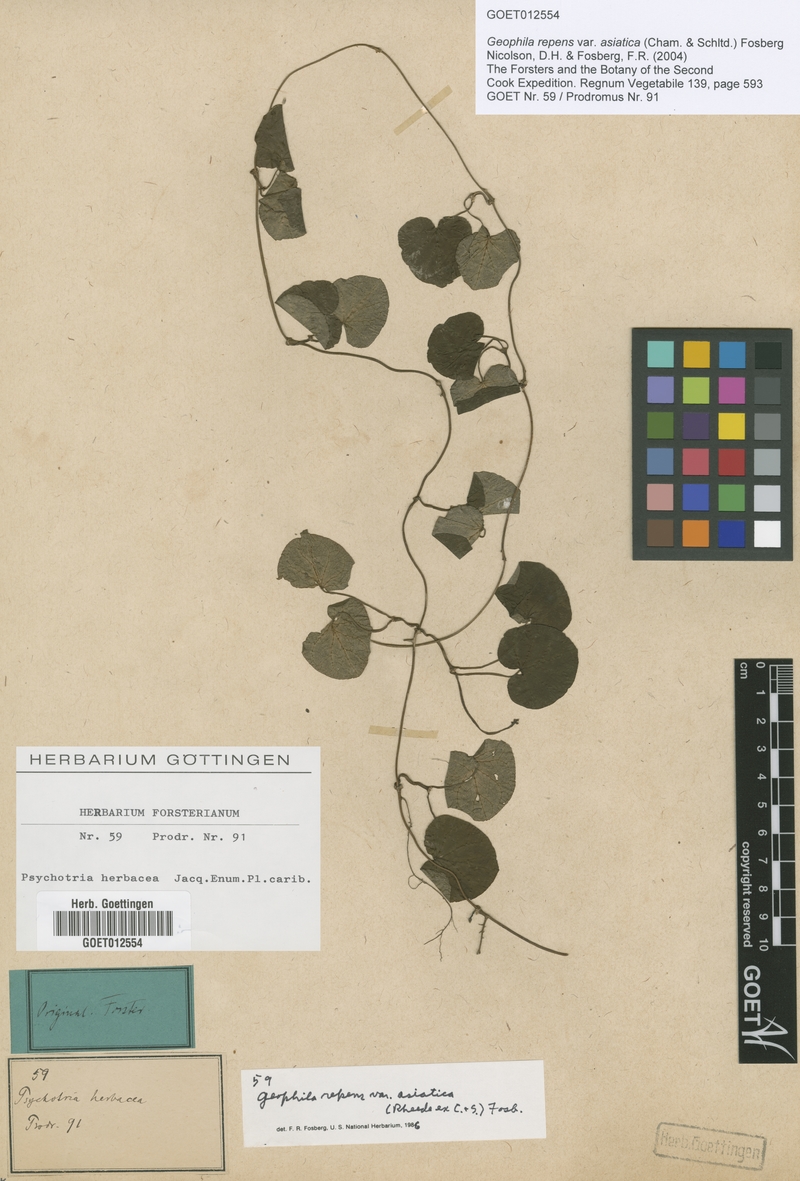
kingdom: Plantae
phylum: Tracheophyta
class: Magnoliopsida
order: Gentianales
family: Rubiaceae
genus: Geophila
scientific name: Geophila herbacea
